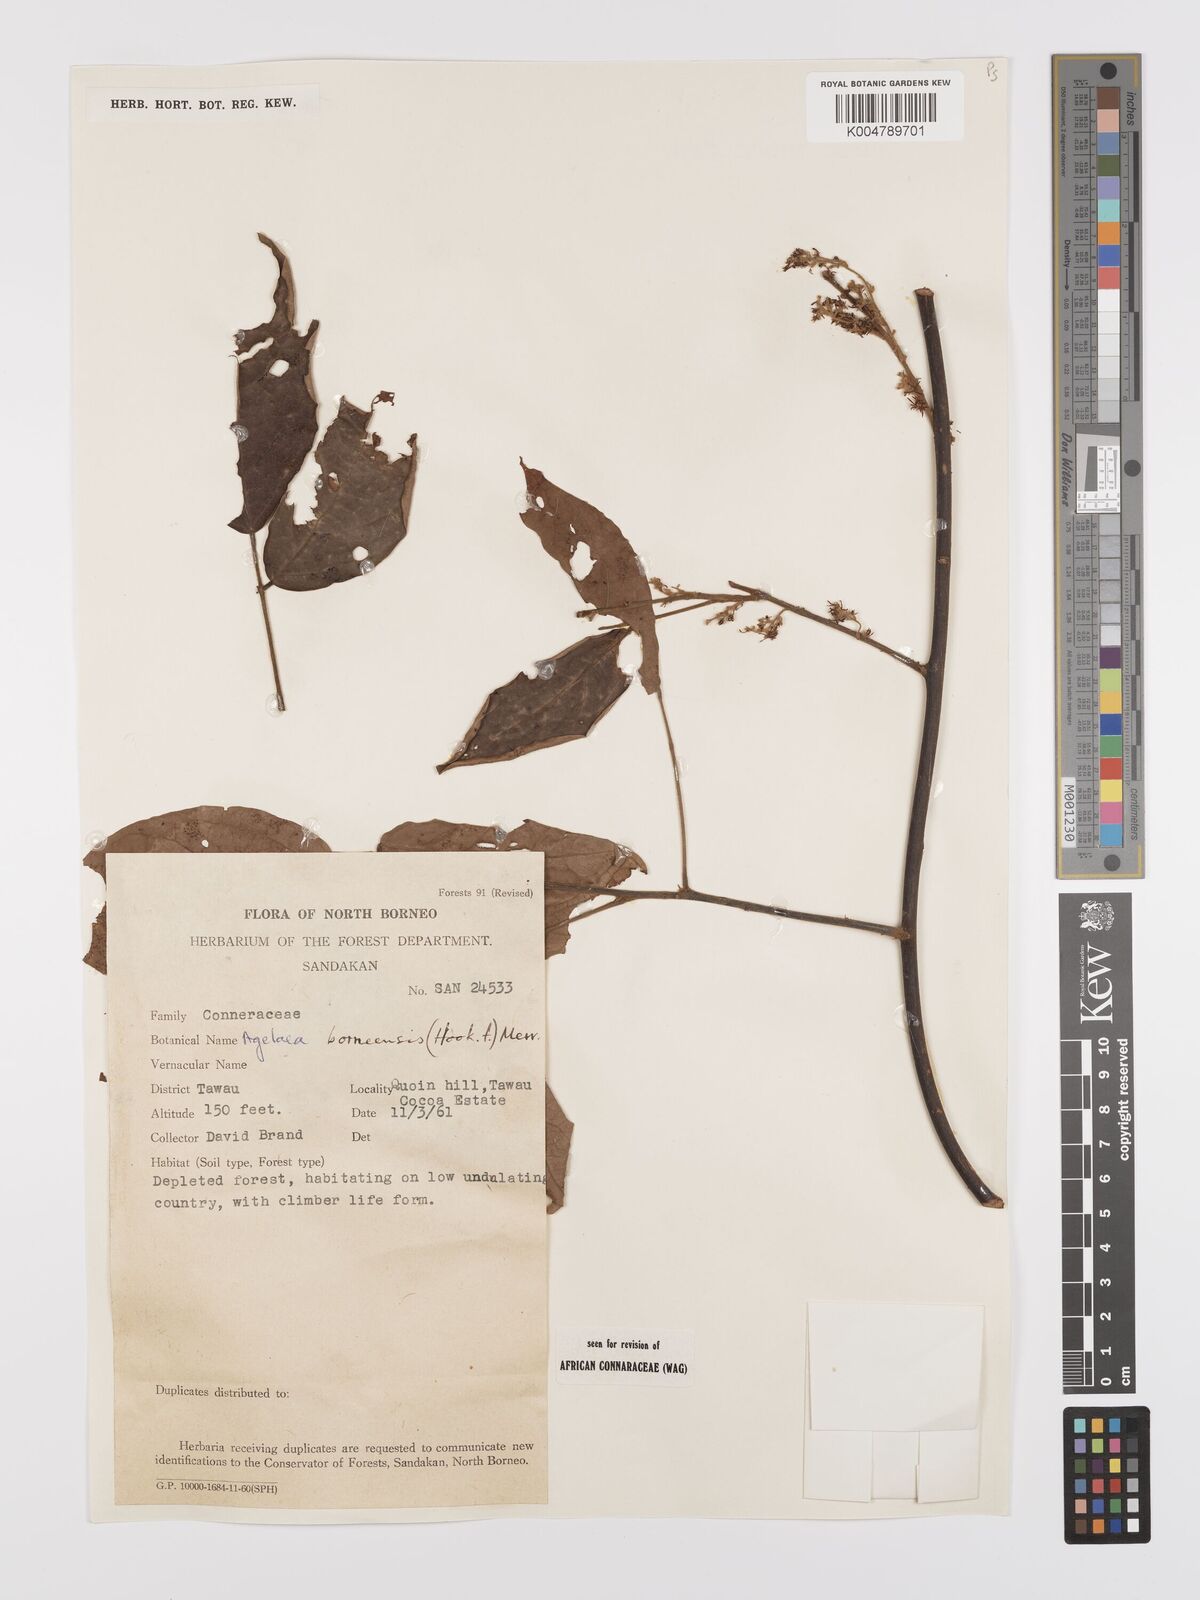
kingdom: Plantae
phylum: Tracheophyta
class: Magnoliopsida
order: Oxalidales
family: Connaraceae
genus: Agelaea
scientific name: Agelaea borneensis
